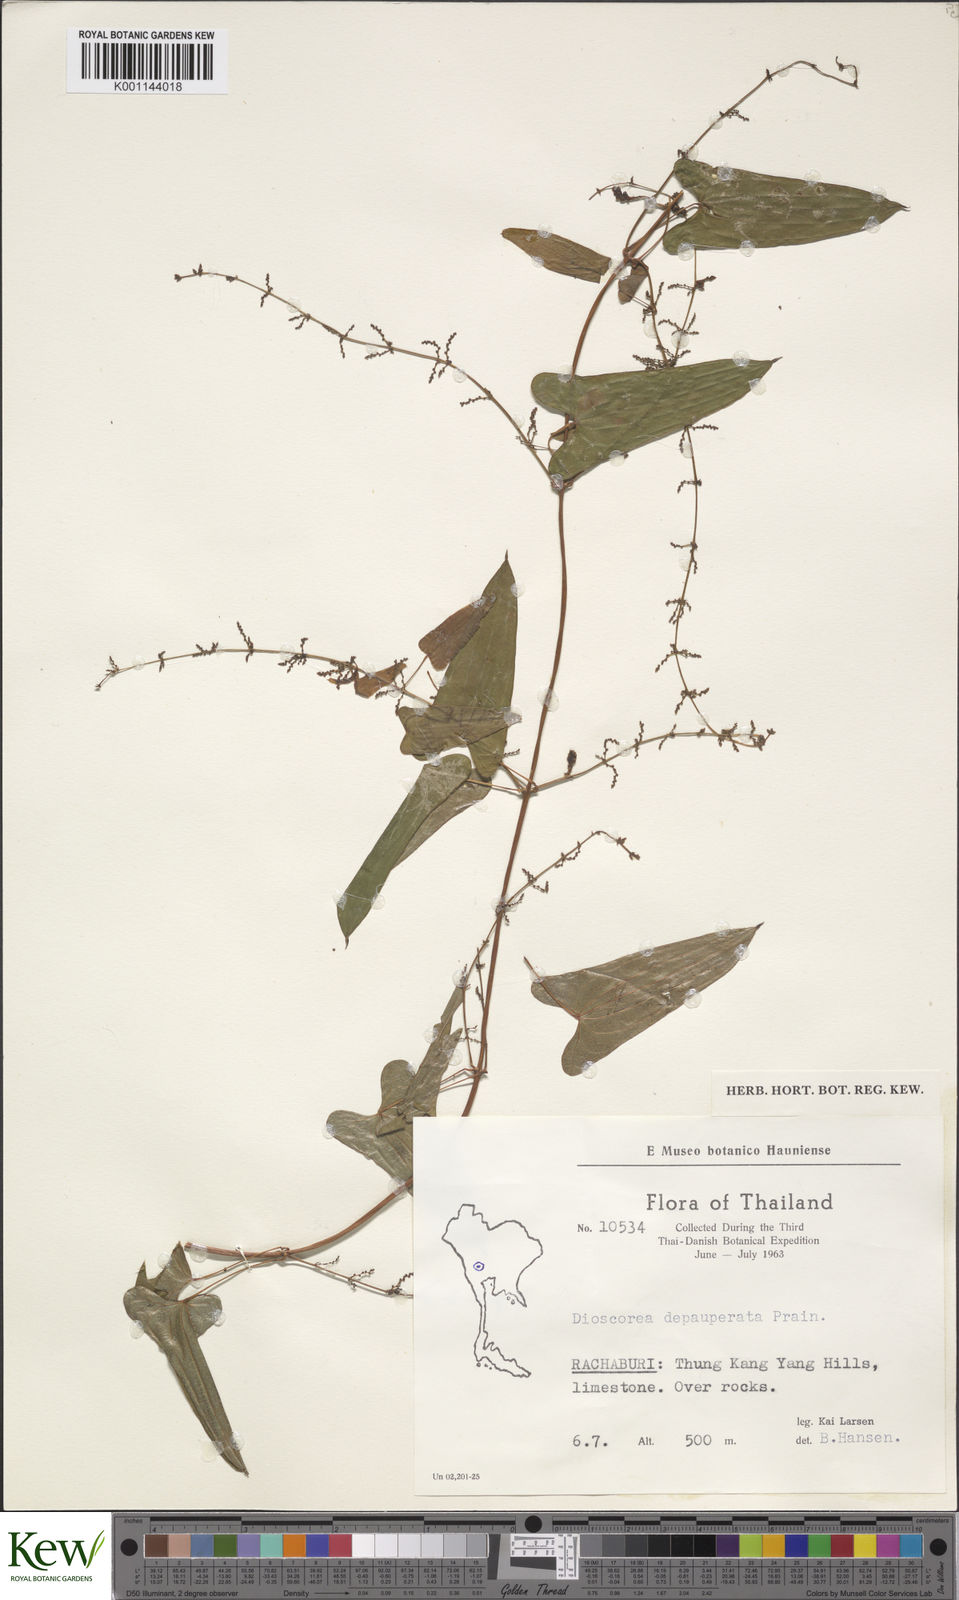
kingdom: Plantae
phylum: Tracheophyta
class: Liliopsida
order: Dioscoreales
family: Dioscoreaceae
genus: Dioscorea
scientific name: Dioscorea depauperata
